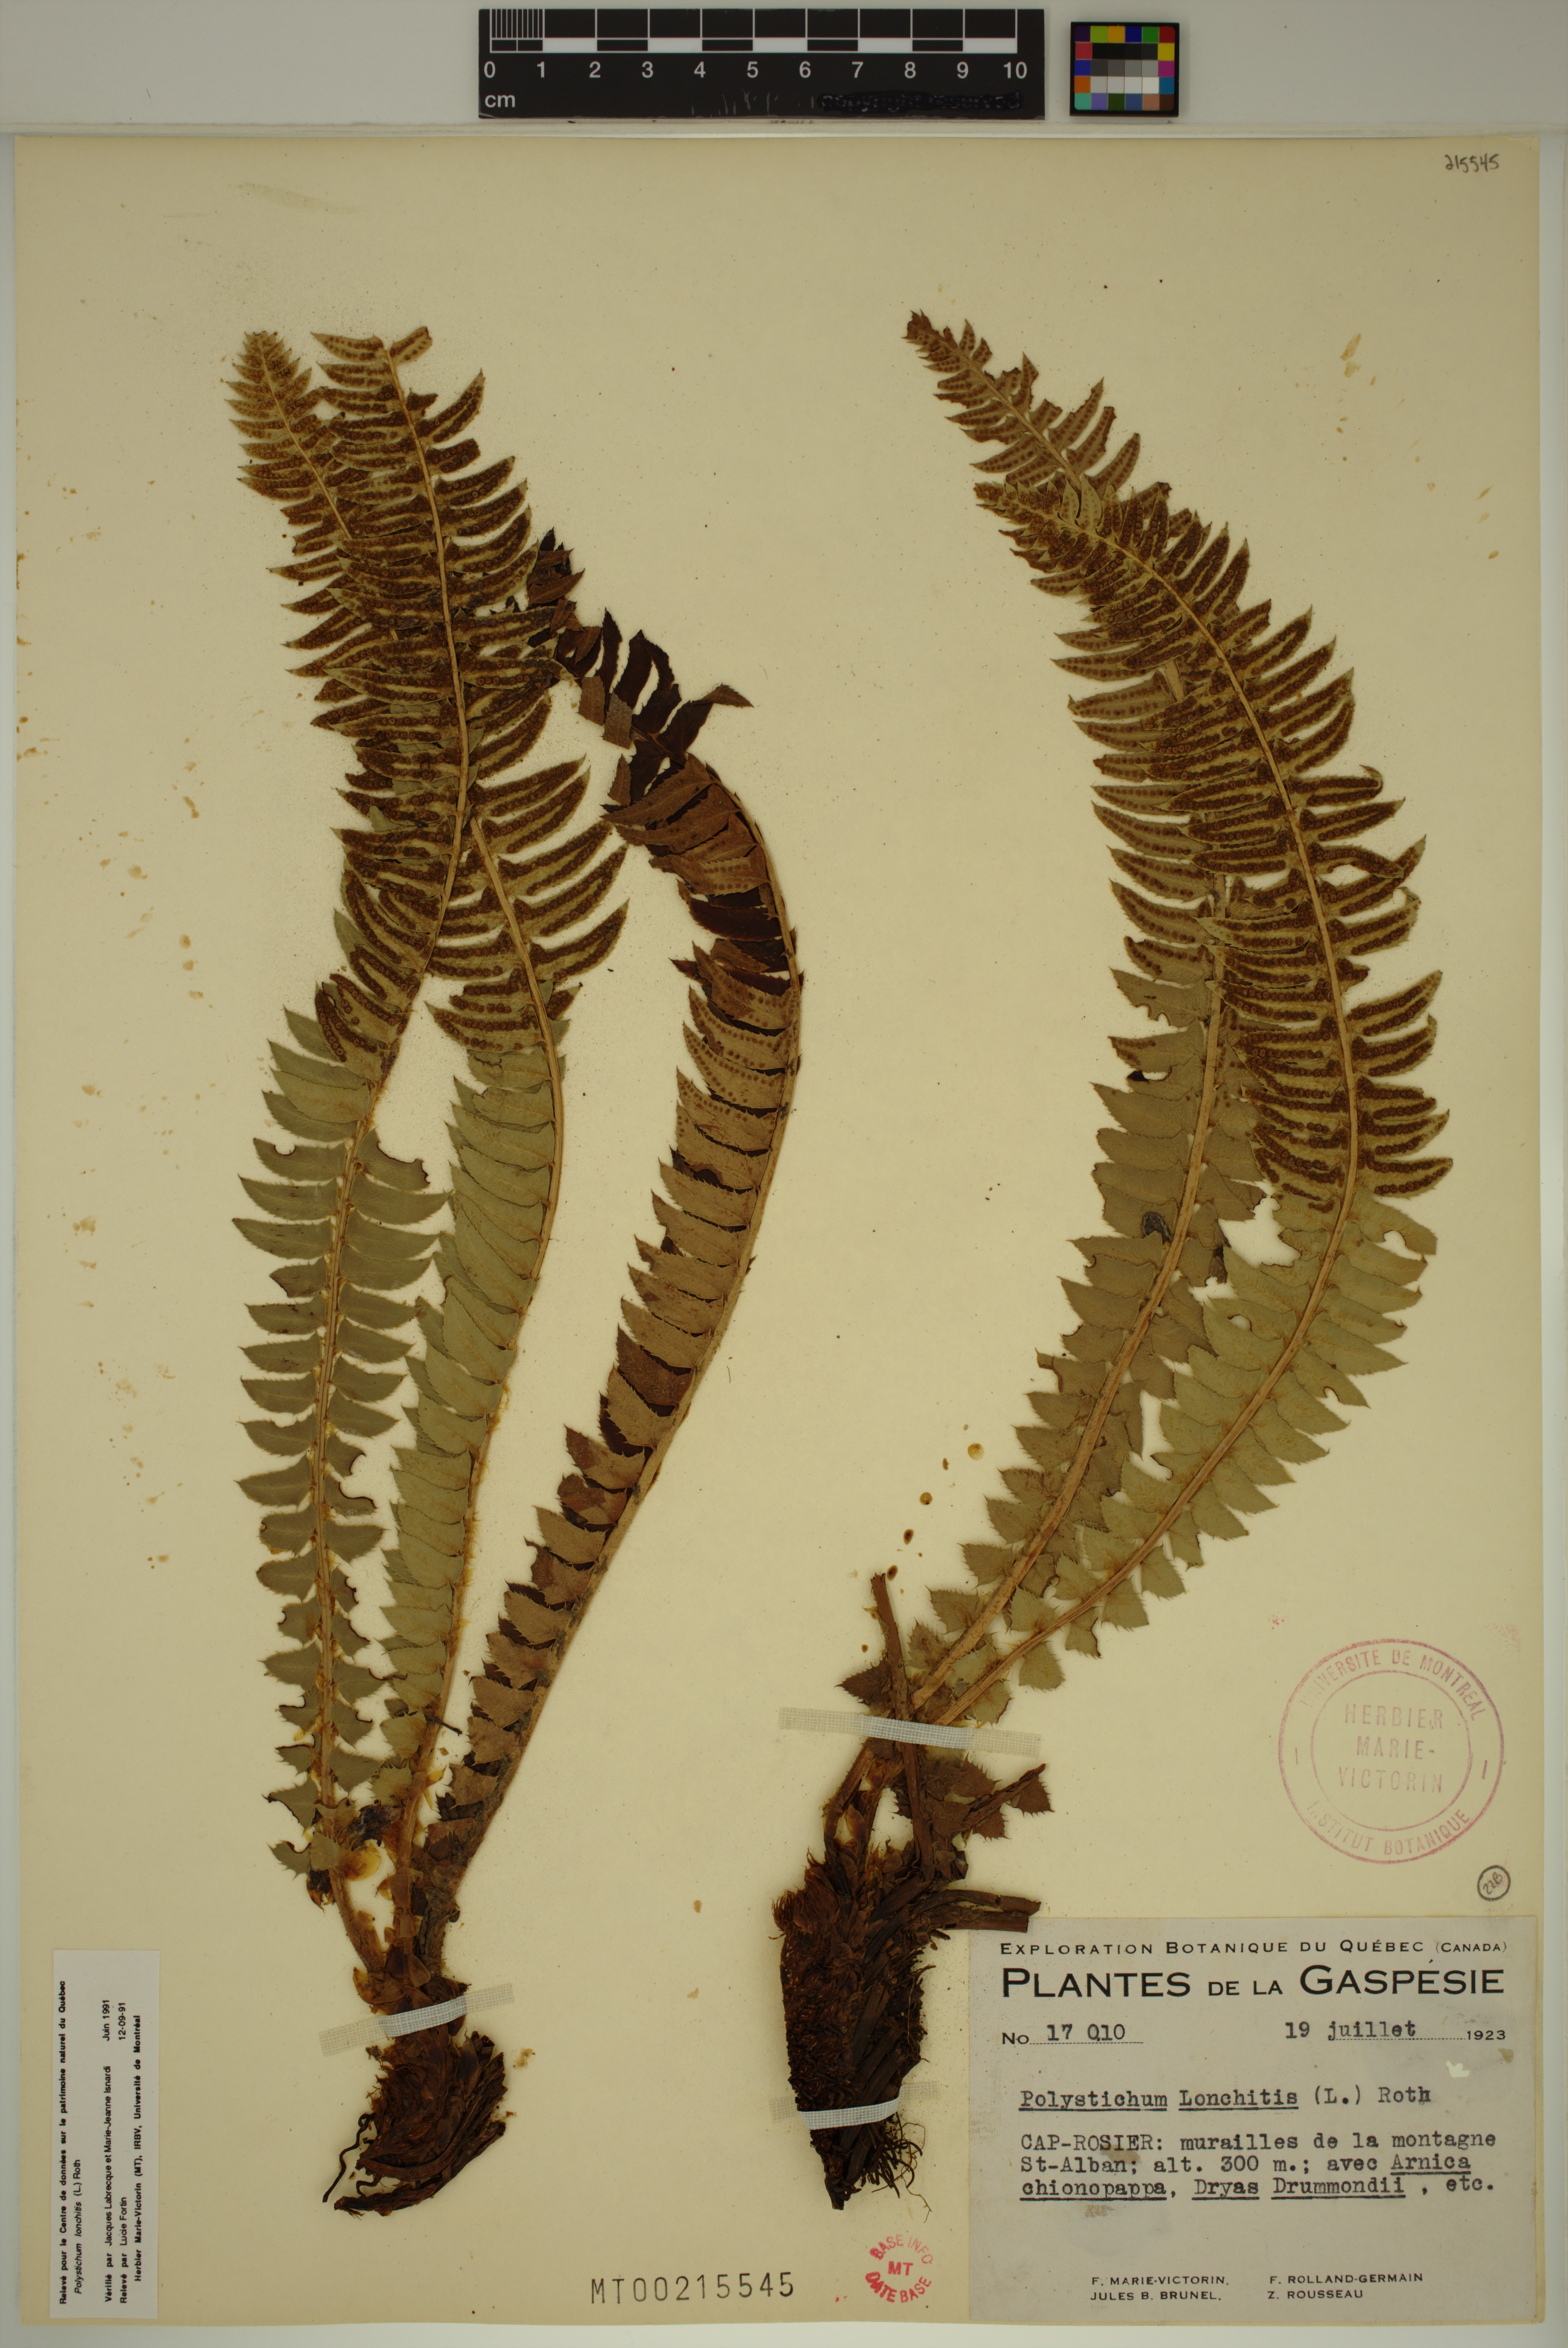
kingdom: Plantae
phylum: Tracheophyta
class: Polypodiopsida
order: Polypodiales
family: Dryopteridaceae
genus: Polystichum
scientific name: Polystichum lonchitis
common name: Holly fern
